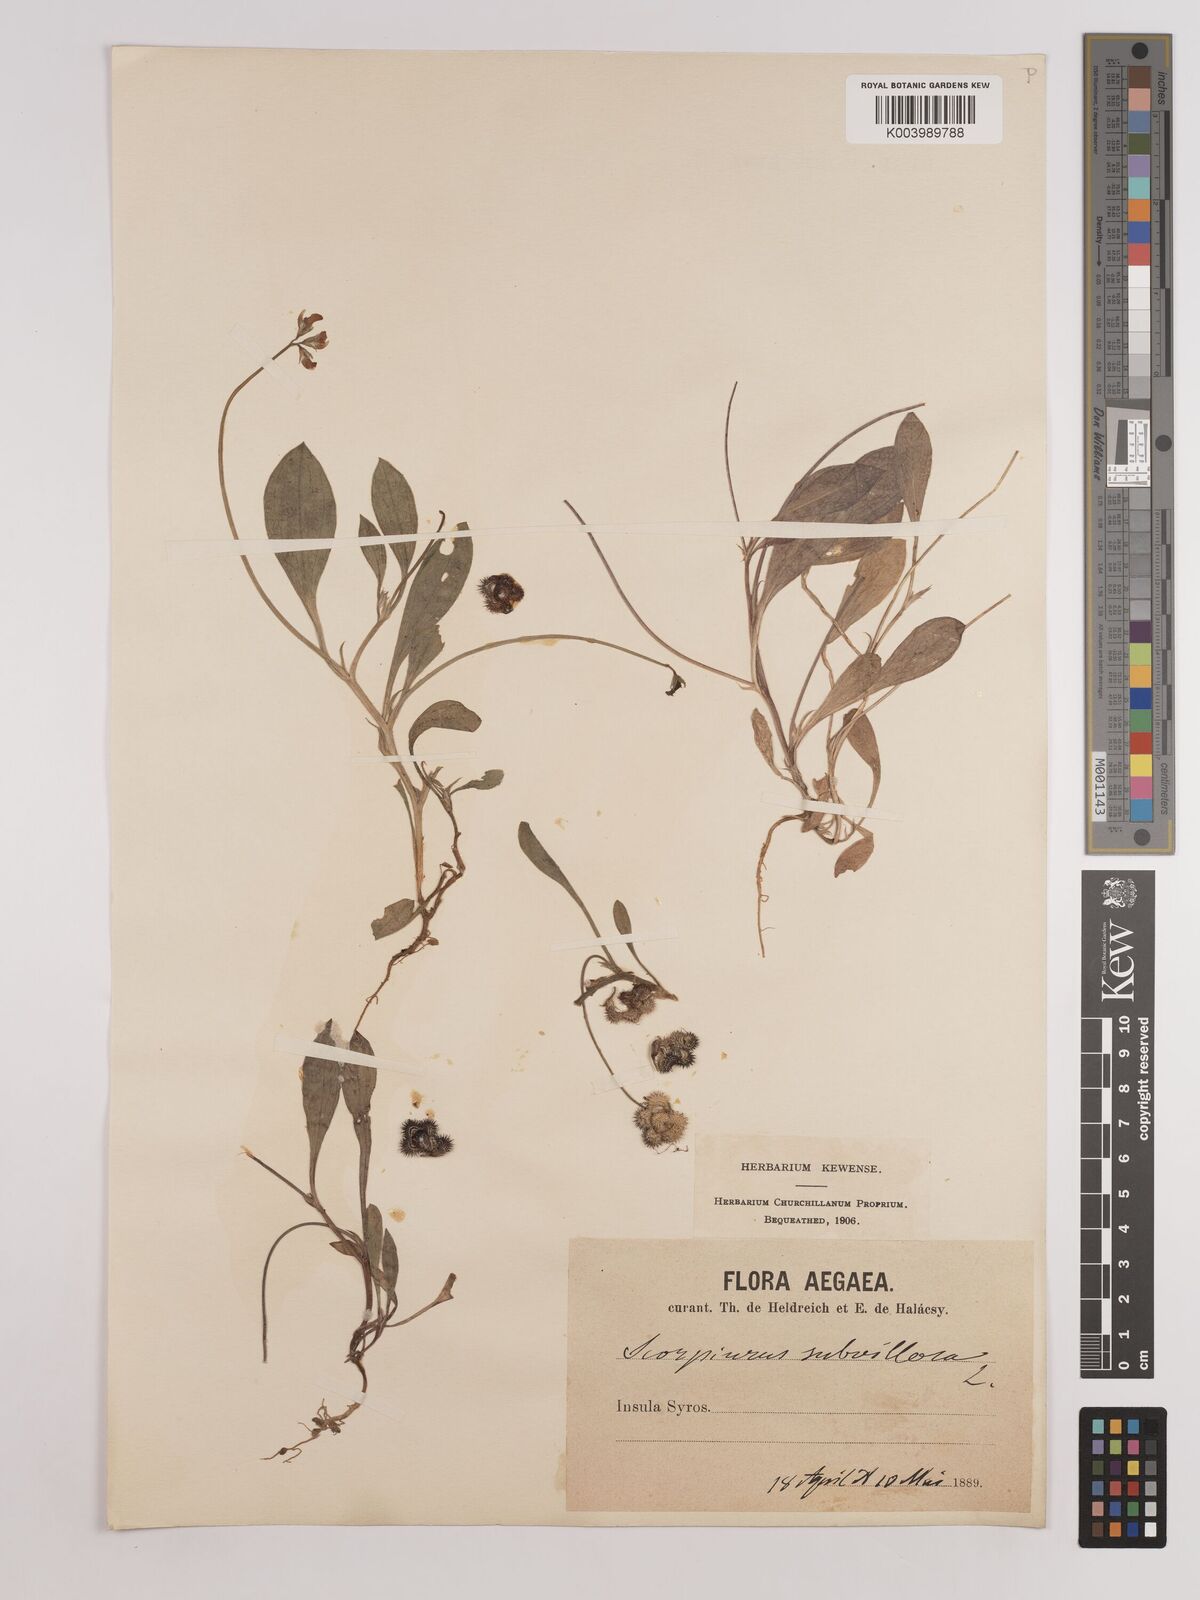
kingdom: Plantae
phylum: Tracheophyta
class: Magnoliopsida
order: Fabales
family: Fabaceae
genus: Scorpiurus
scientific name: Scorpiurus muricatus
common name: Caterpillar-plant
